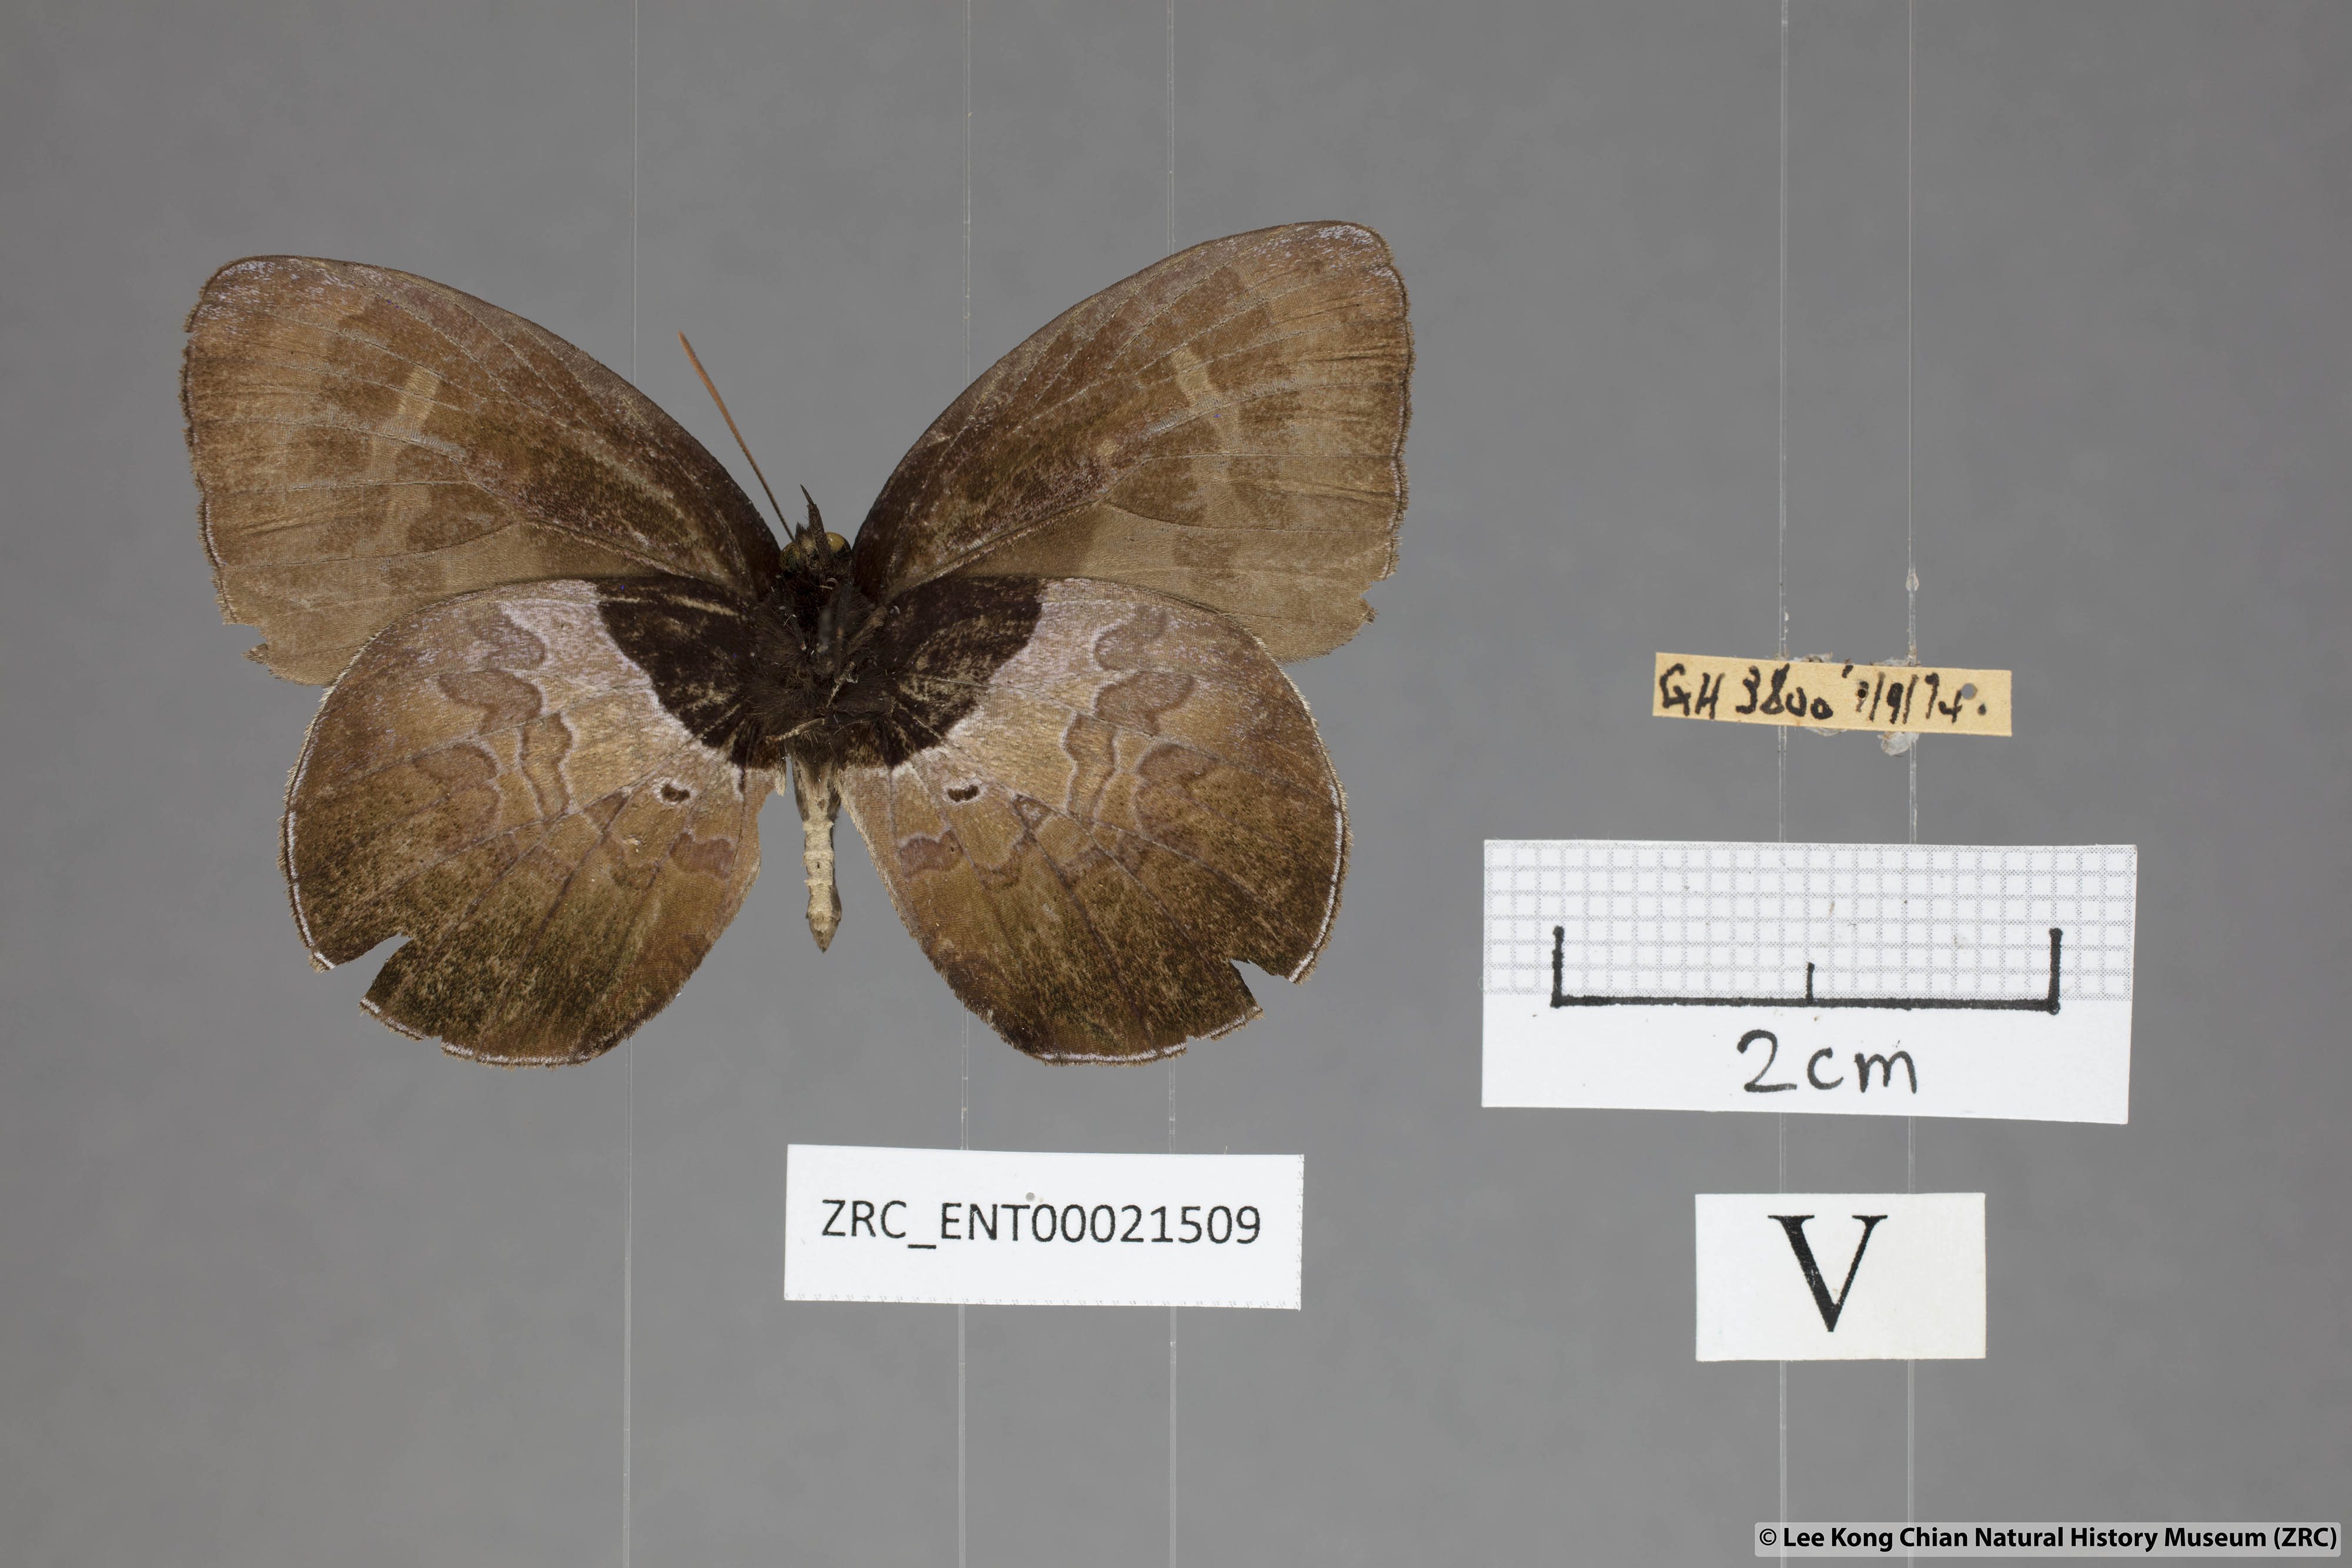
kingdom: Animalia
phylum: Arthropoda
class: Insecta
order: Lepidoptera
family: Lycaenidae
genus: Flos
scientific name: Flos
